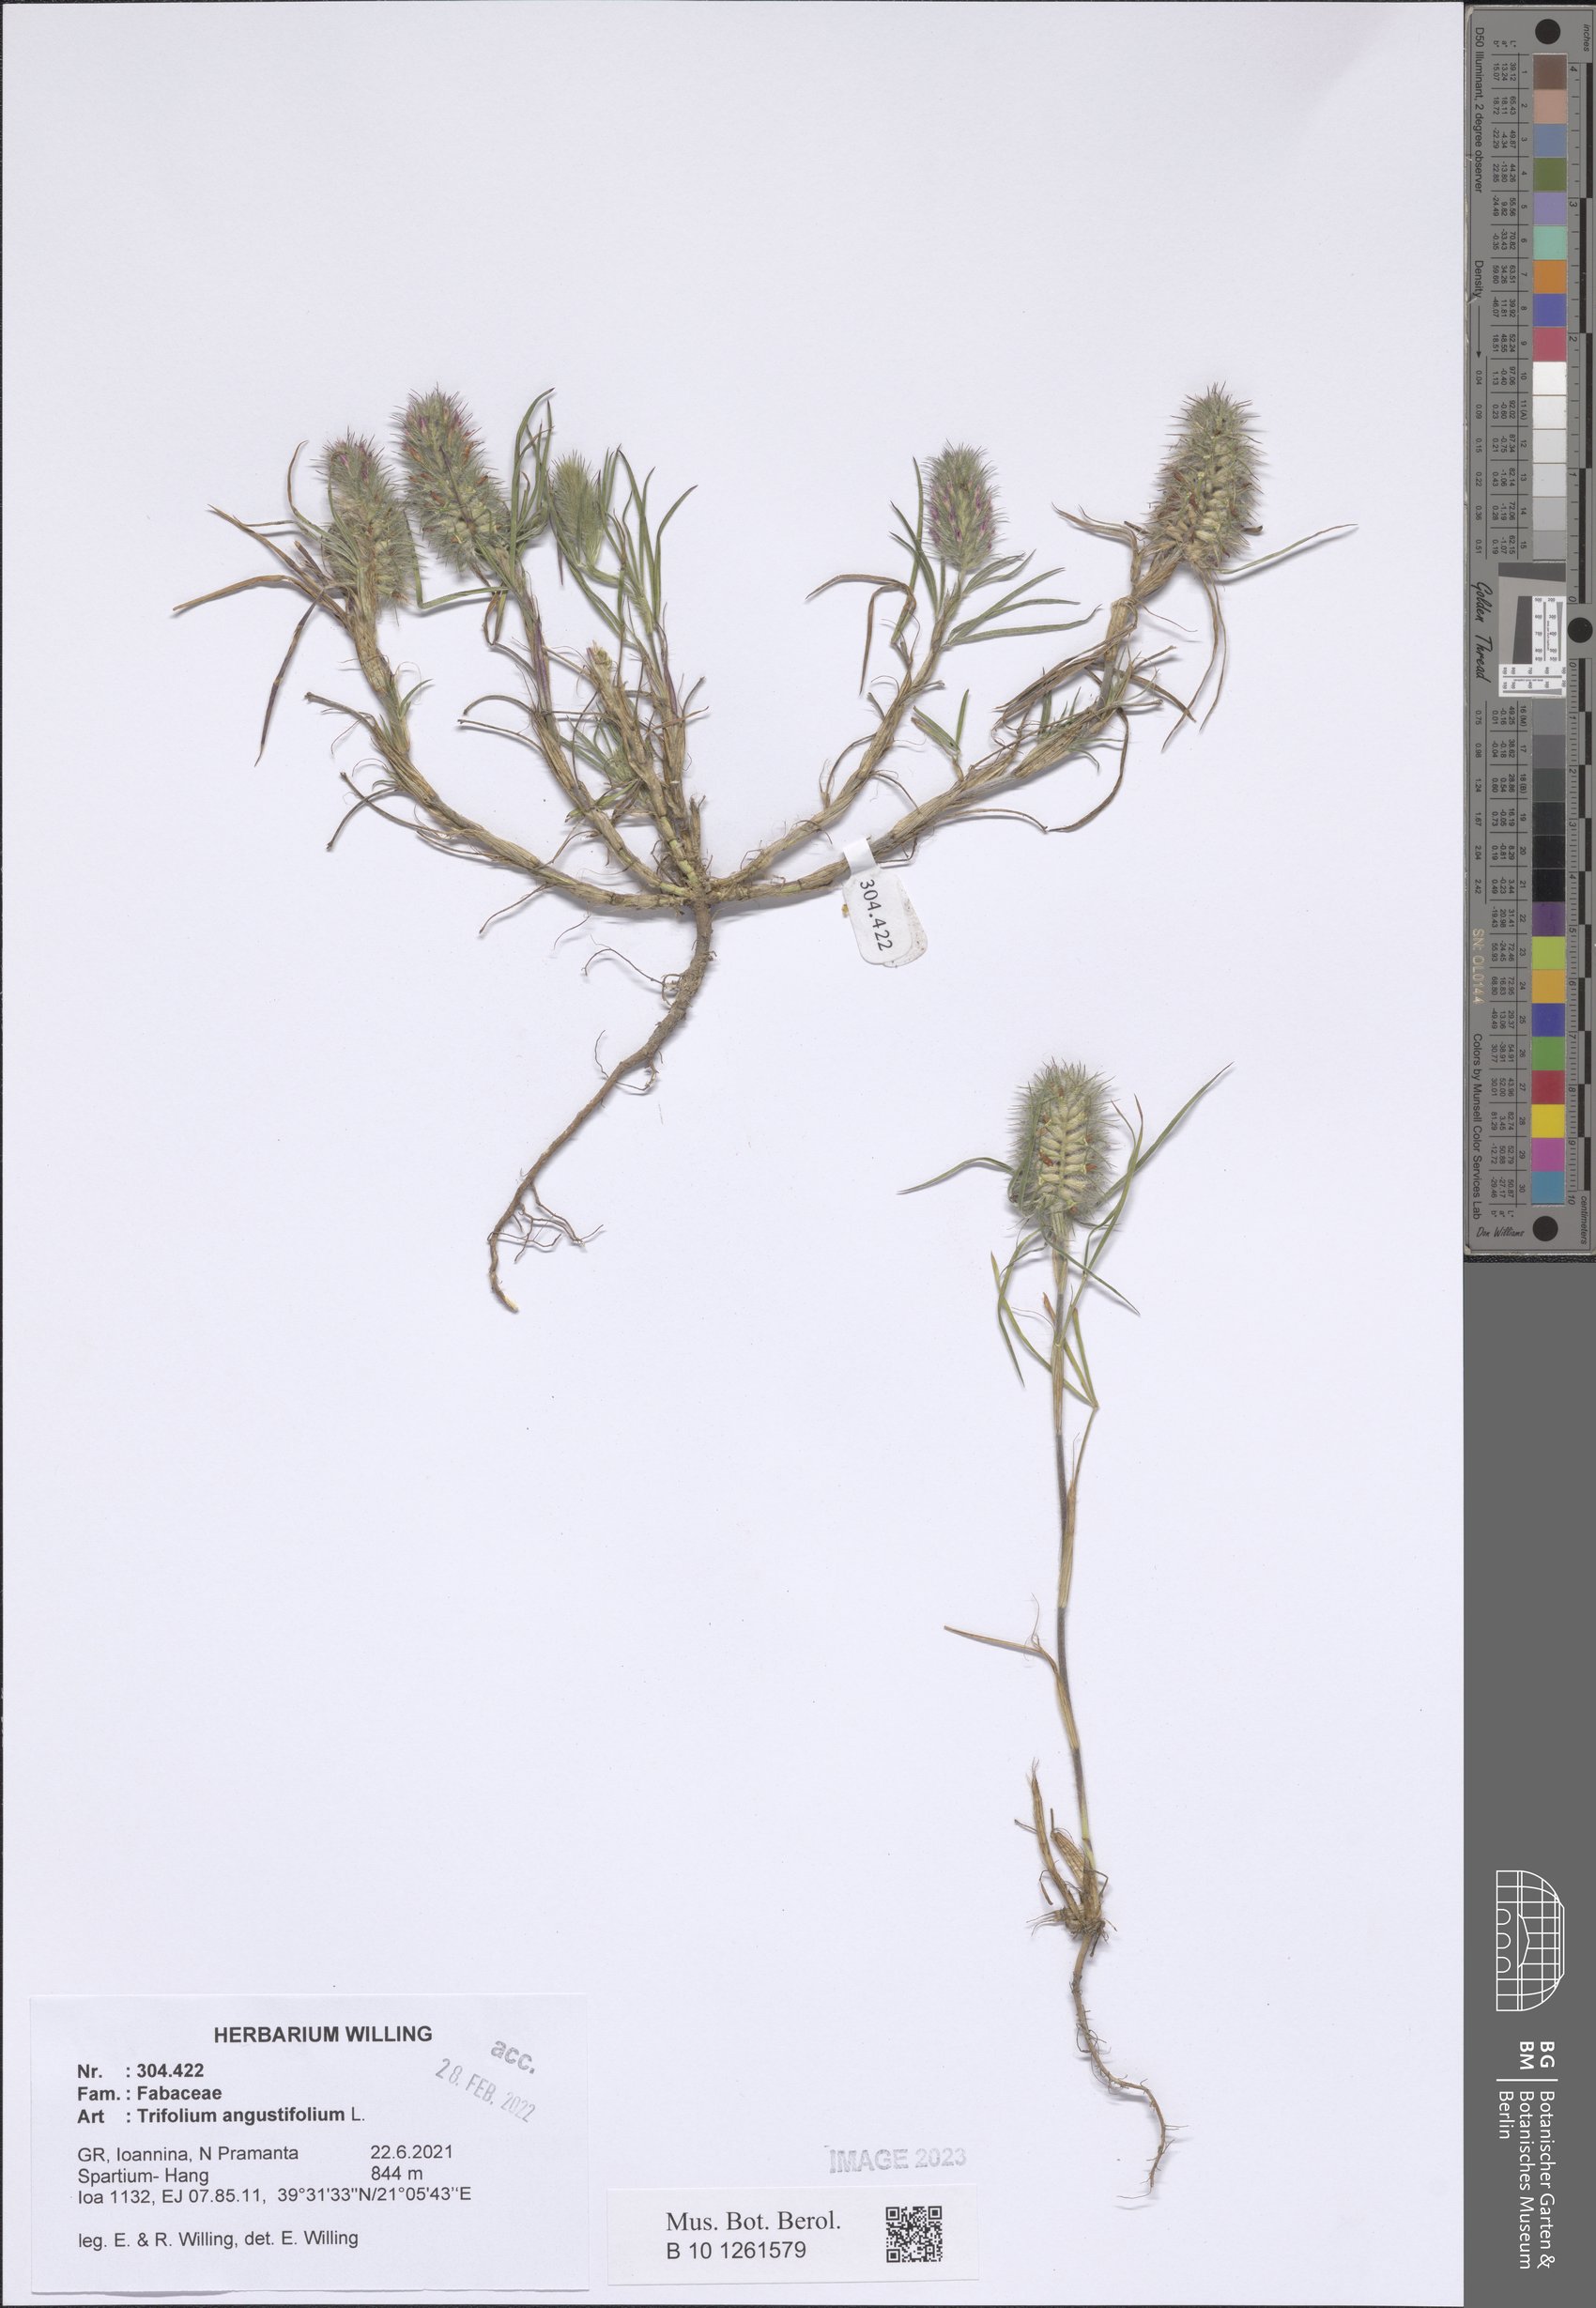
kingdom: Plantae
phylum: Tracheophyta
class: Magnoliopsida
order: Fabales
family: Fabaceae
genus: Trifolium
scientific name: Trifolium angustifolium
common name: Narrow clover
